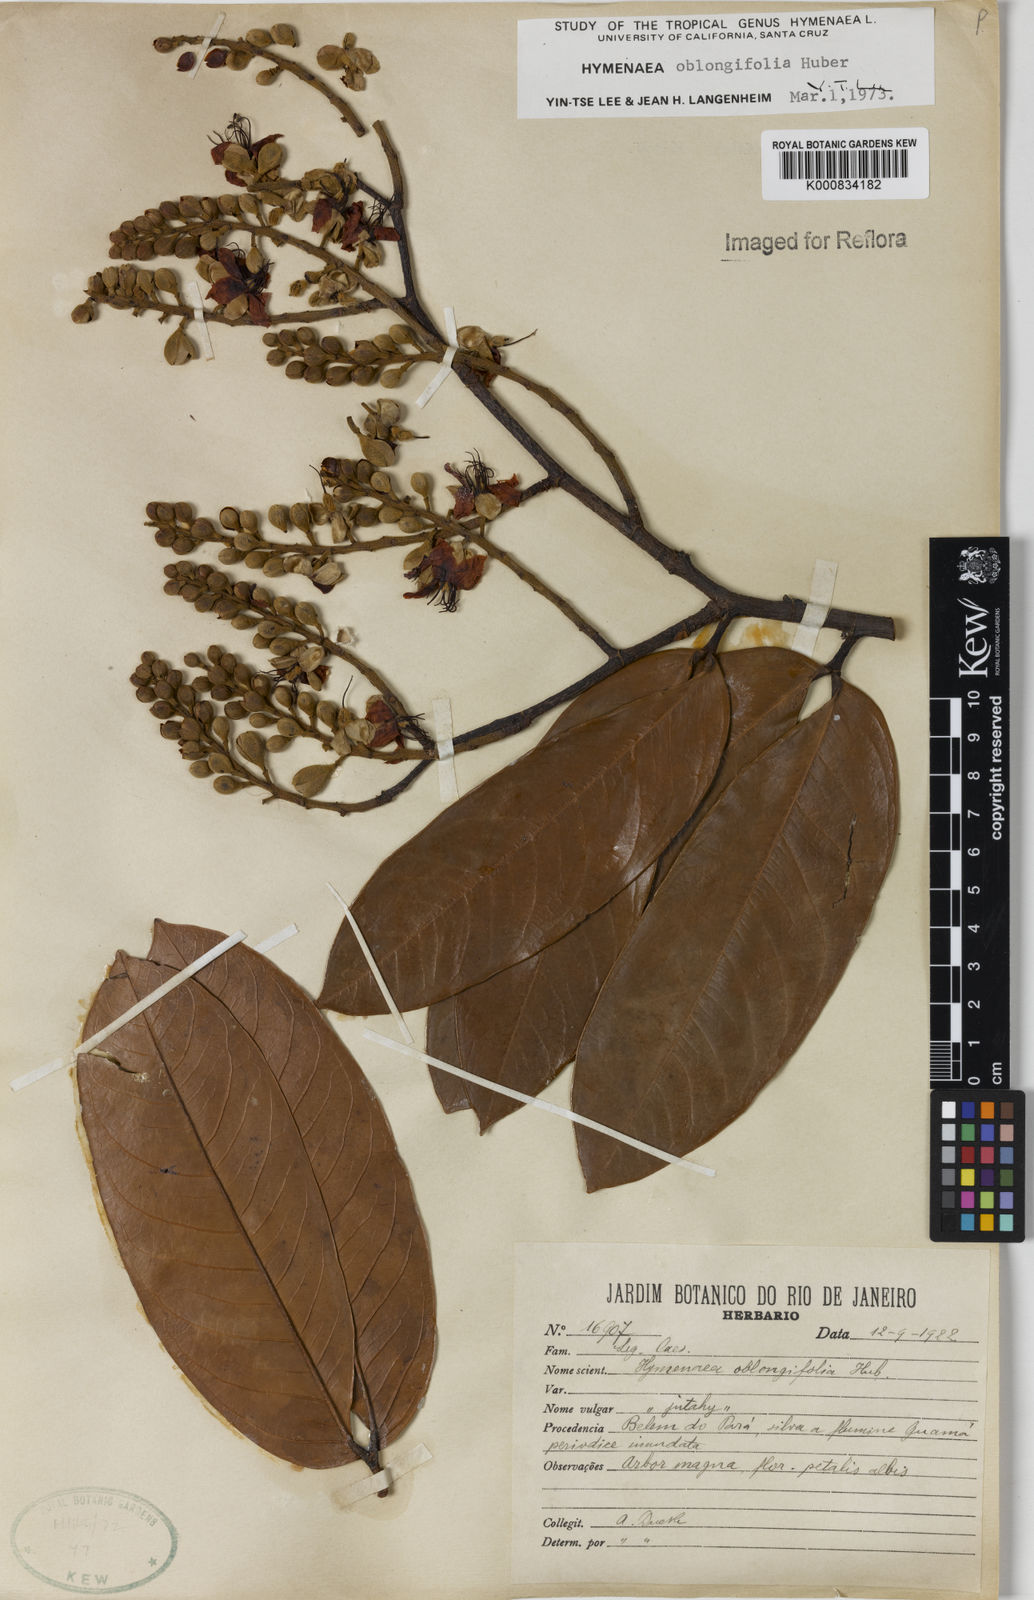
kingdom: Plantae
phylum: Tracheophyta
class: Magnoliopsida
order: Fabales
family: Fabaceae
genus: Hymenaea
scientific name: Hymenaea oblongifolia
